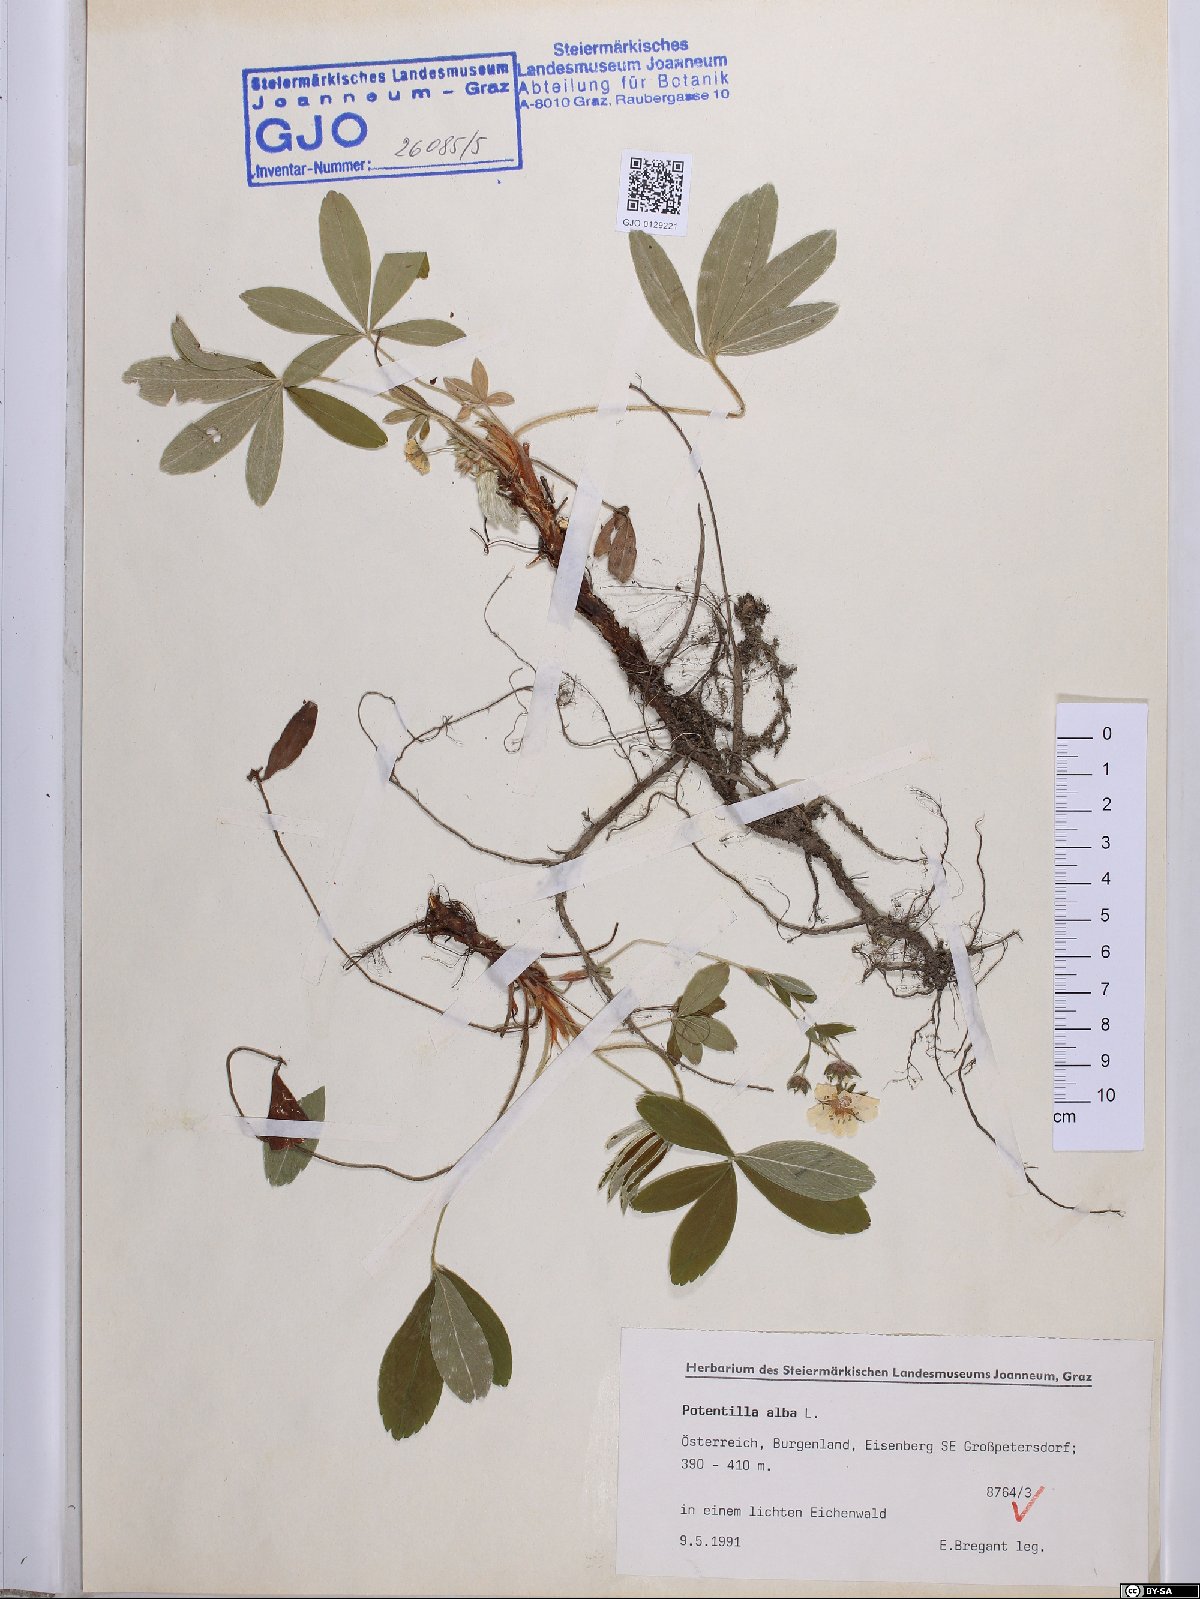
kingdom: Plantae
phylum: Tracheophyta
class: Magnoliopsida
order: Rosales
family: Rosaceae
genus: Potentilla
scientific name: Potentilla alba
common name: White cinquefoil
